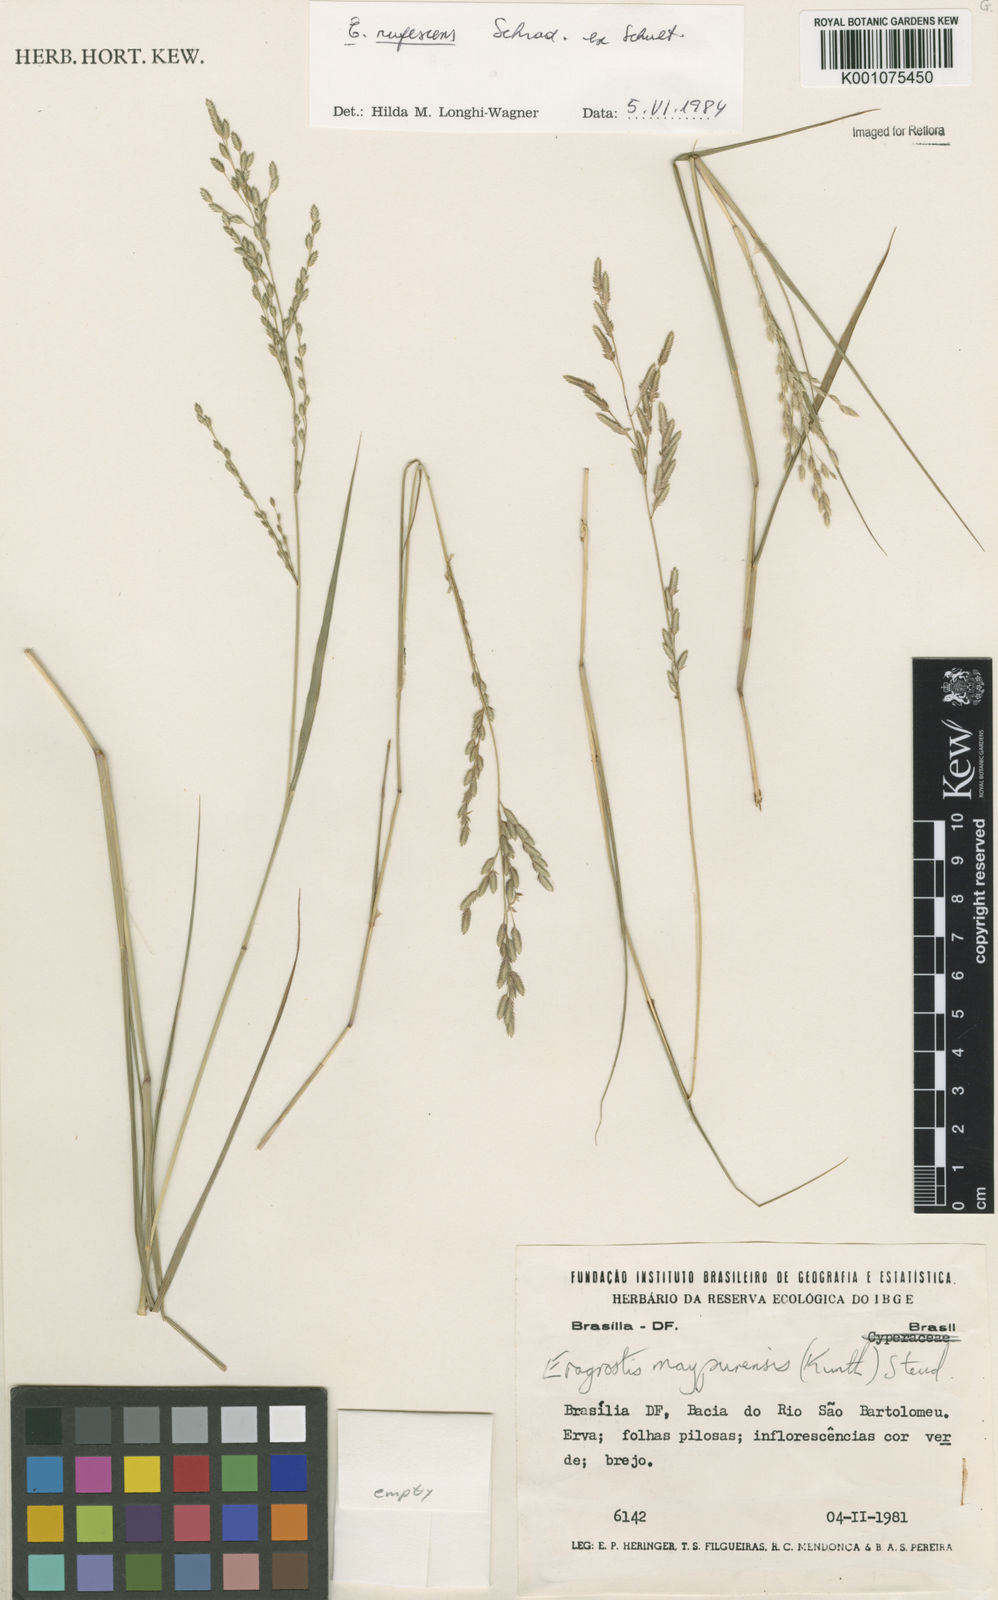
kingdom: Plantae
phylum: Tracheophyta
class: Liliopsida
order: Poales
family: Poaceae
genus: Eragrostis
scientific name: Eragrostis rufescens
